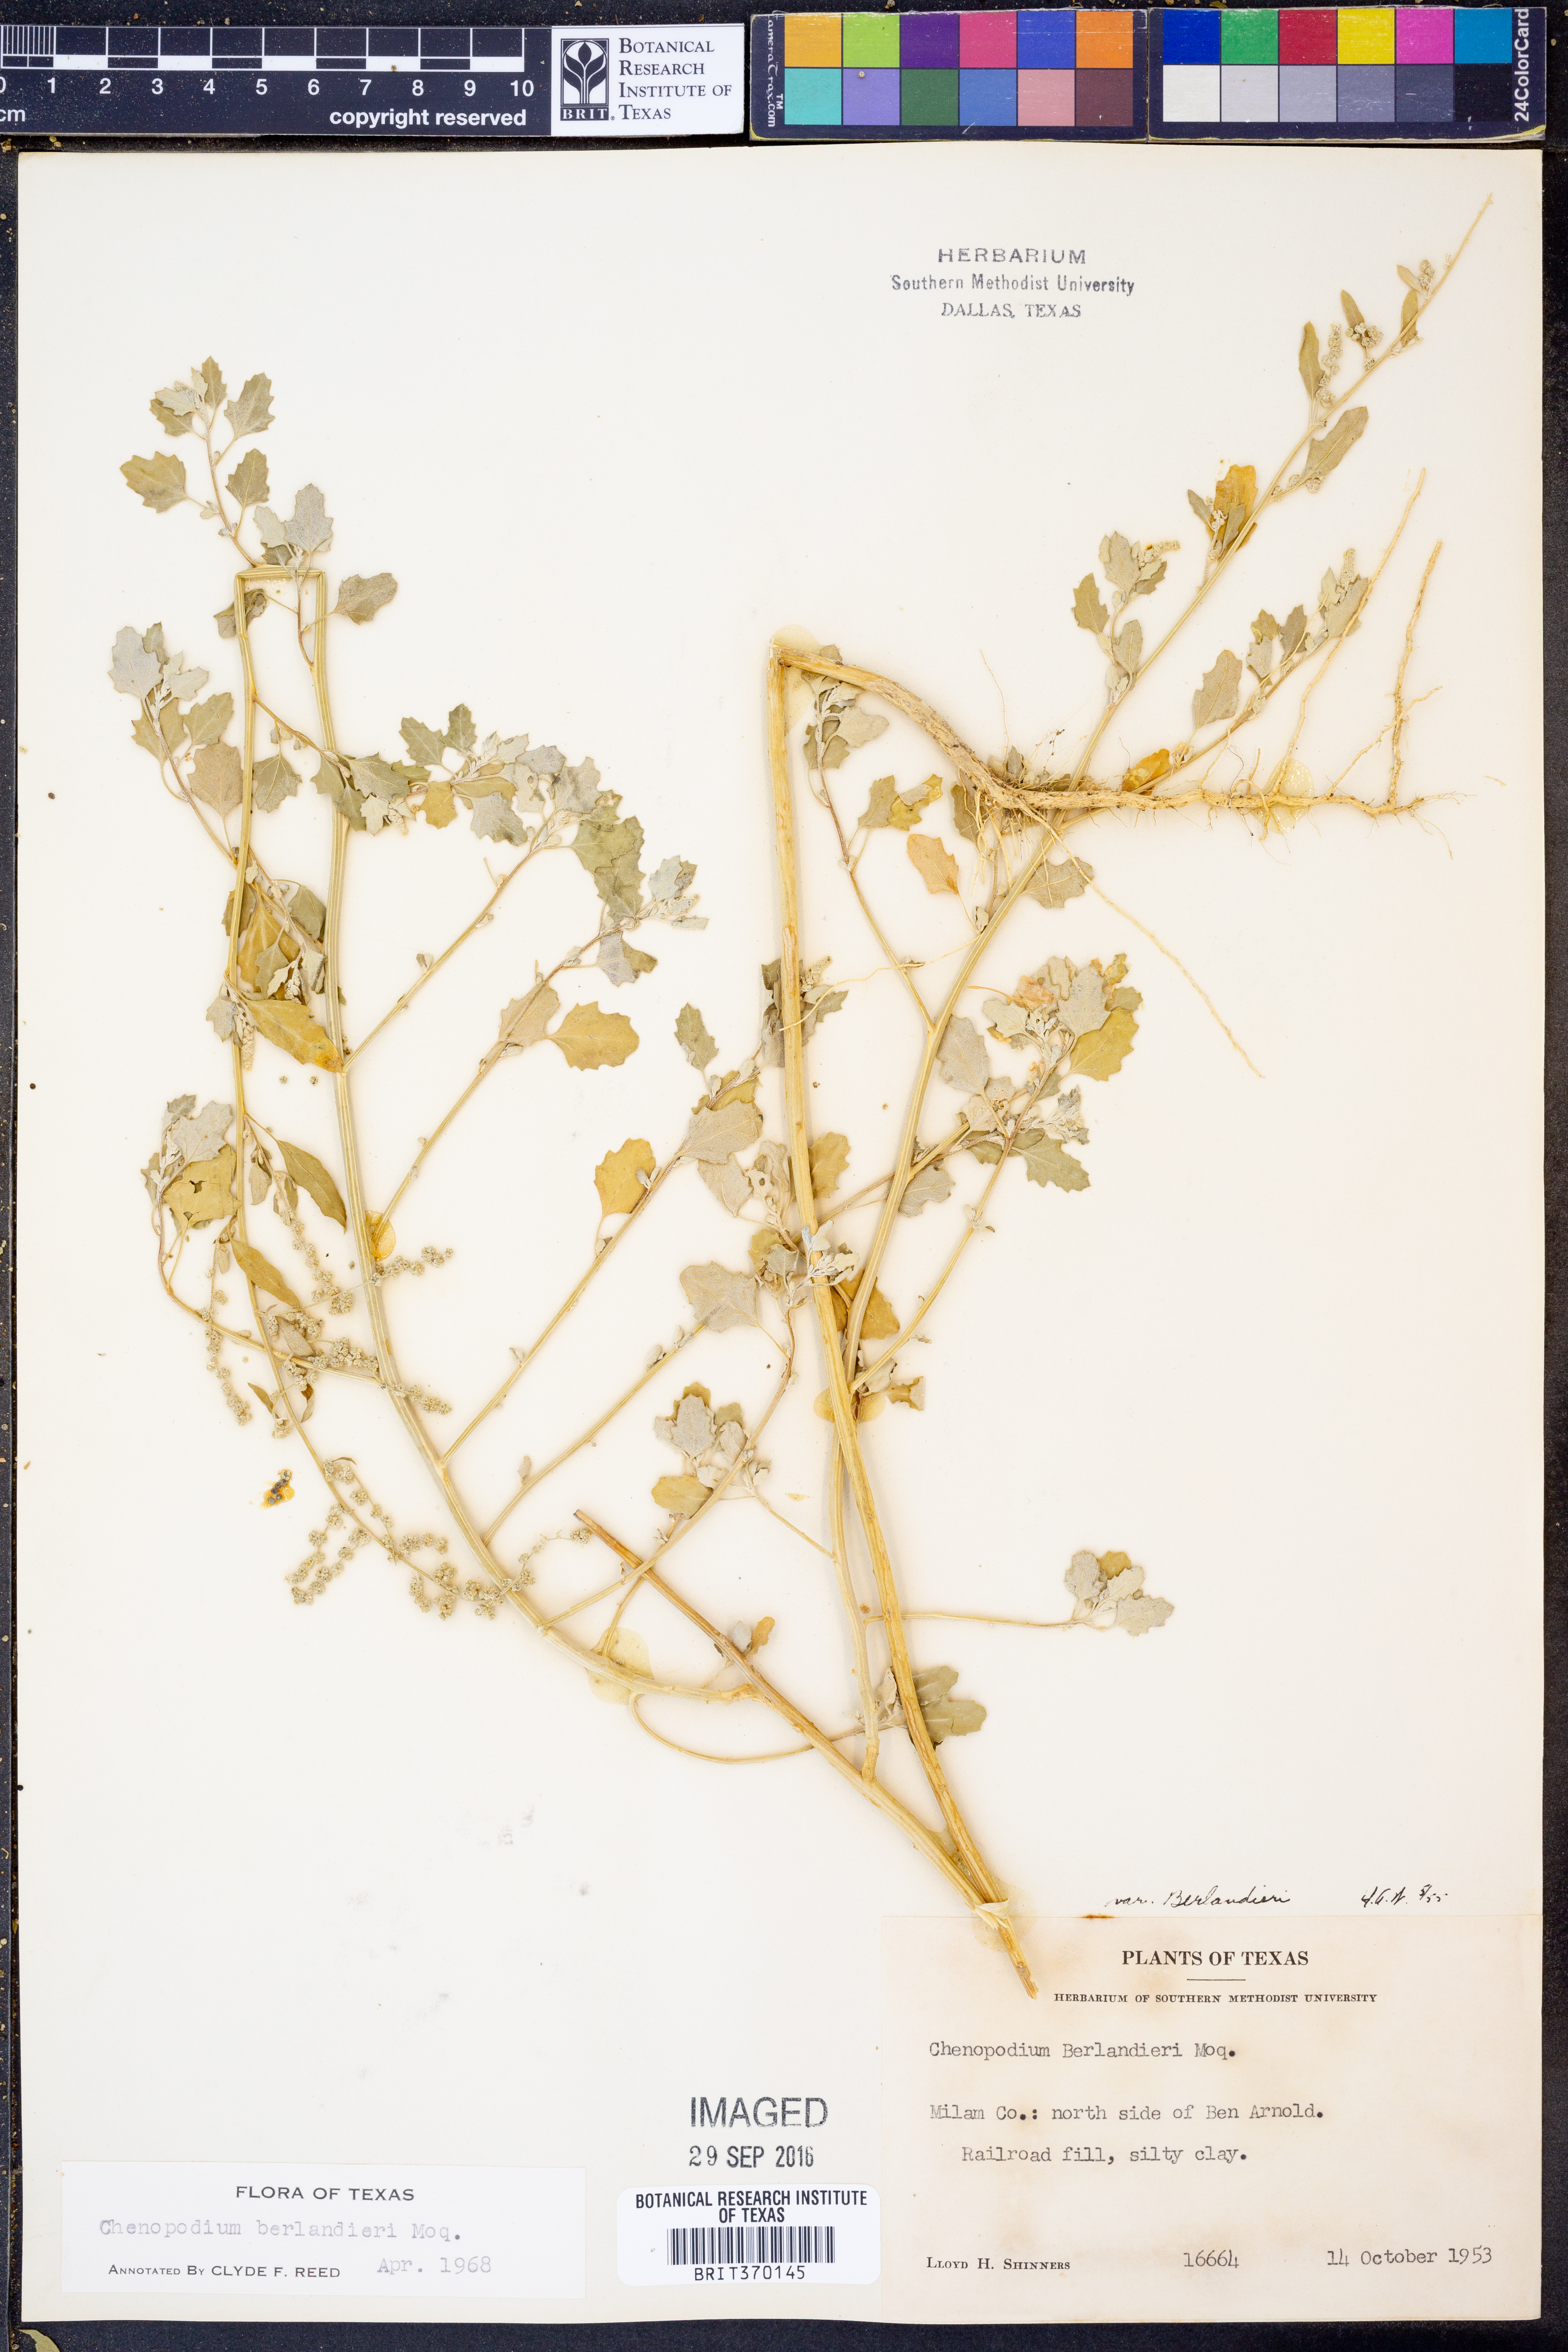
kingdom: Plantae
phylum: Tracheophyta
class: Magnoliopsida
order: Caryophyllales
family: Amaranthaceae
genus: Chenopodium
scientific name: Chenopodium berlandieri
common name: Pit-seed goosefoot
